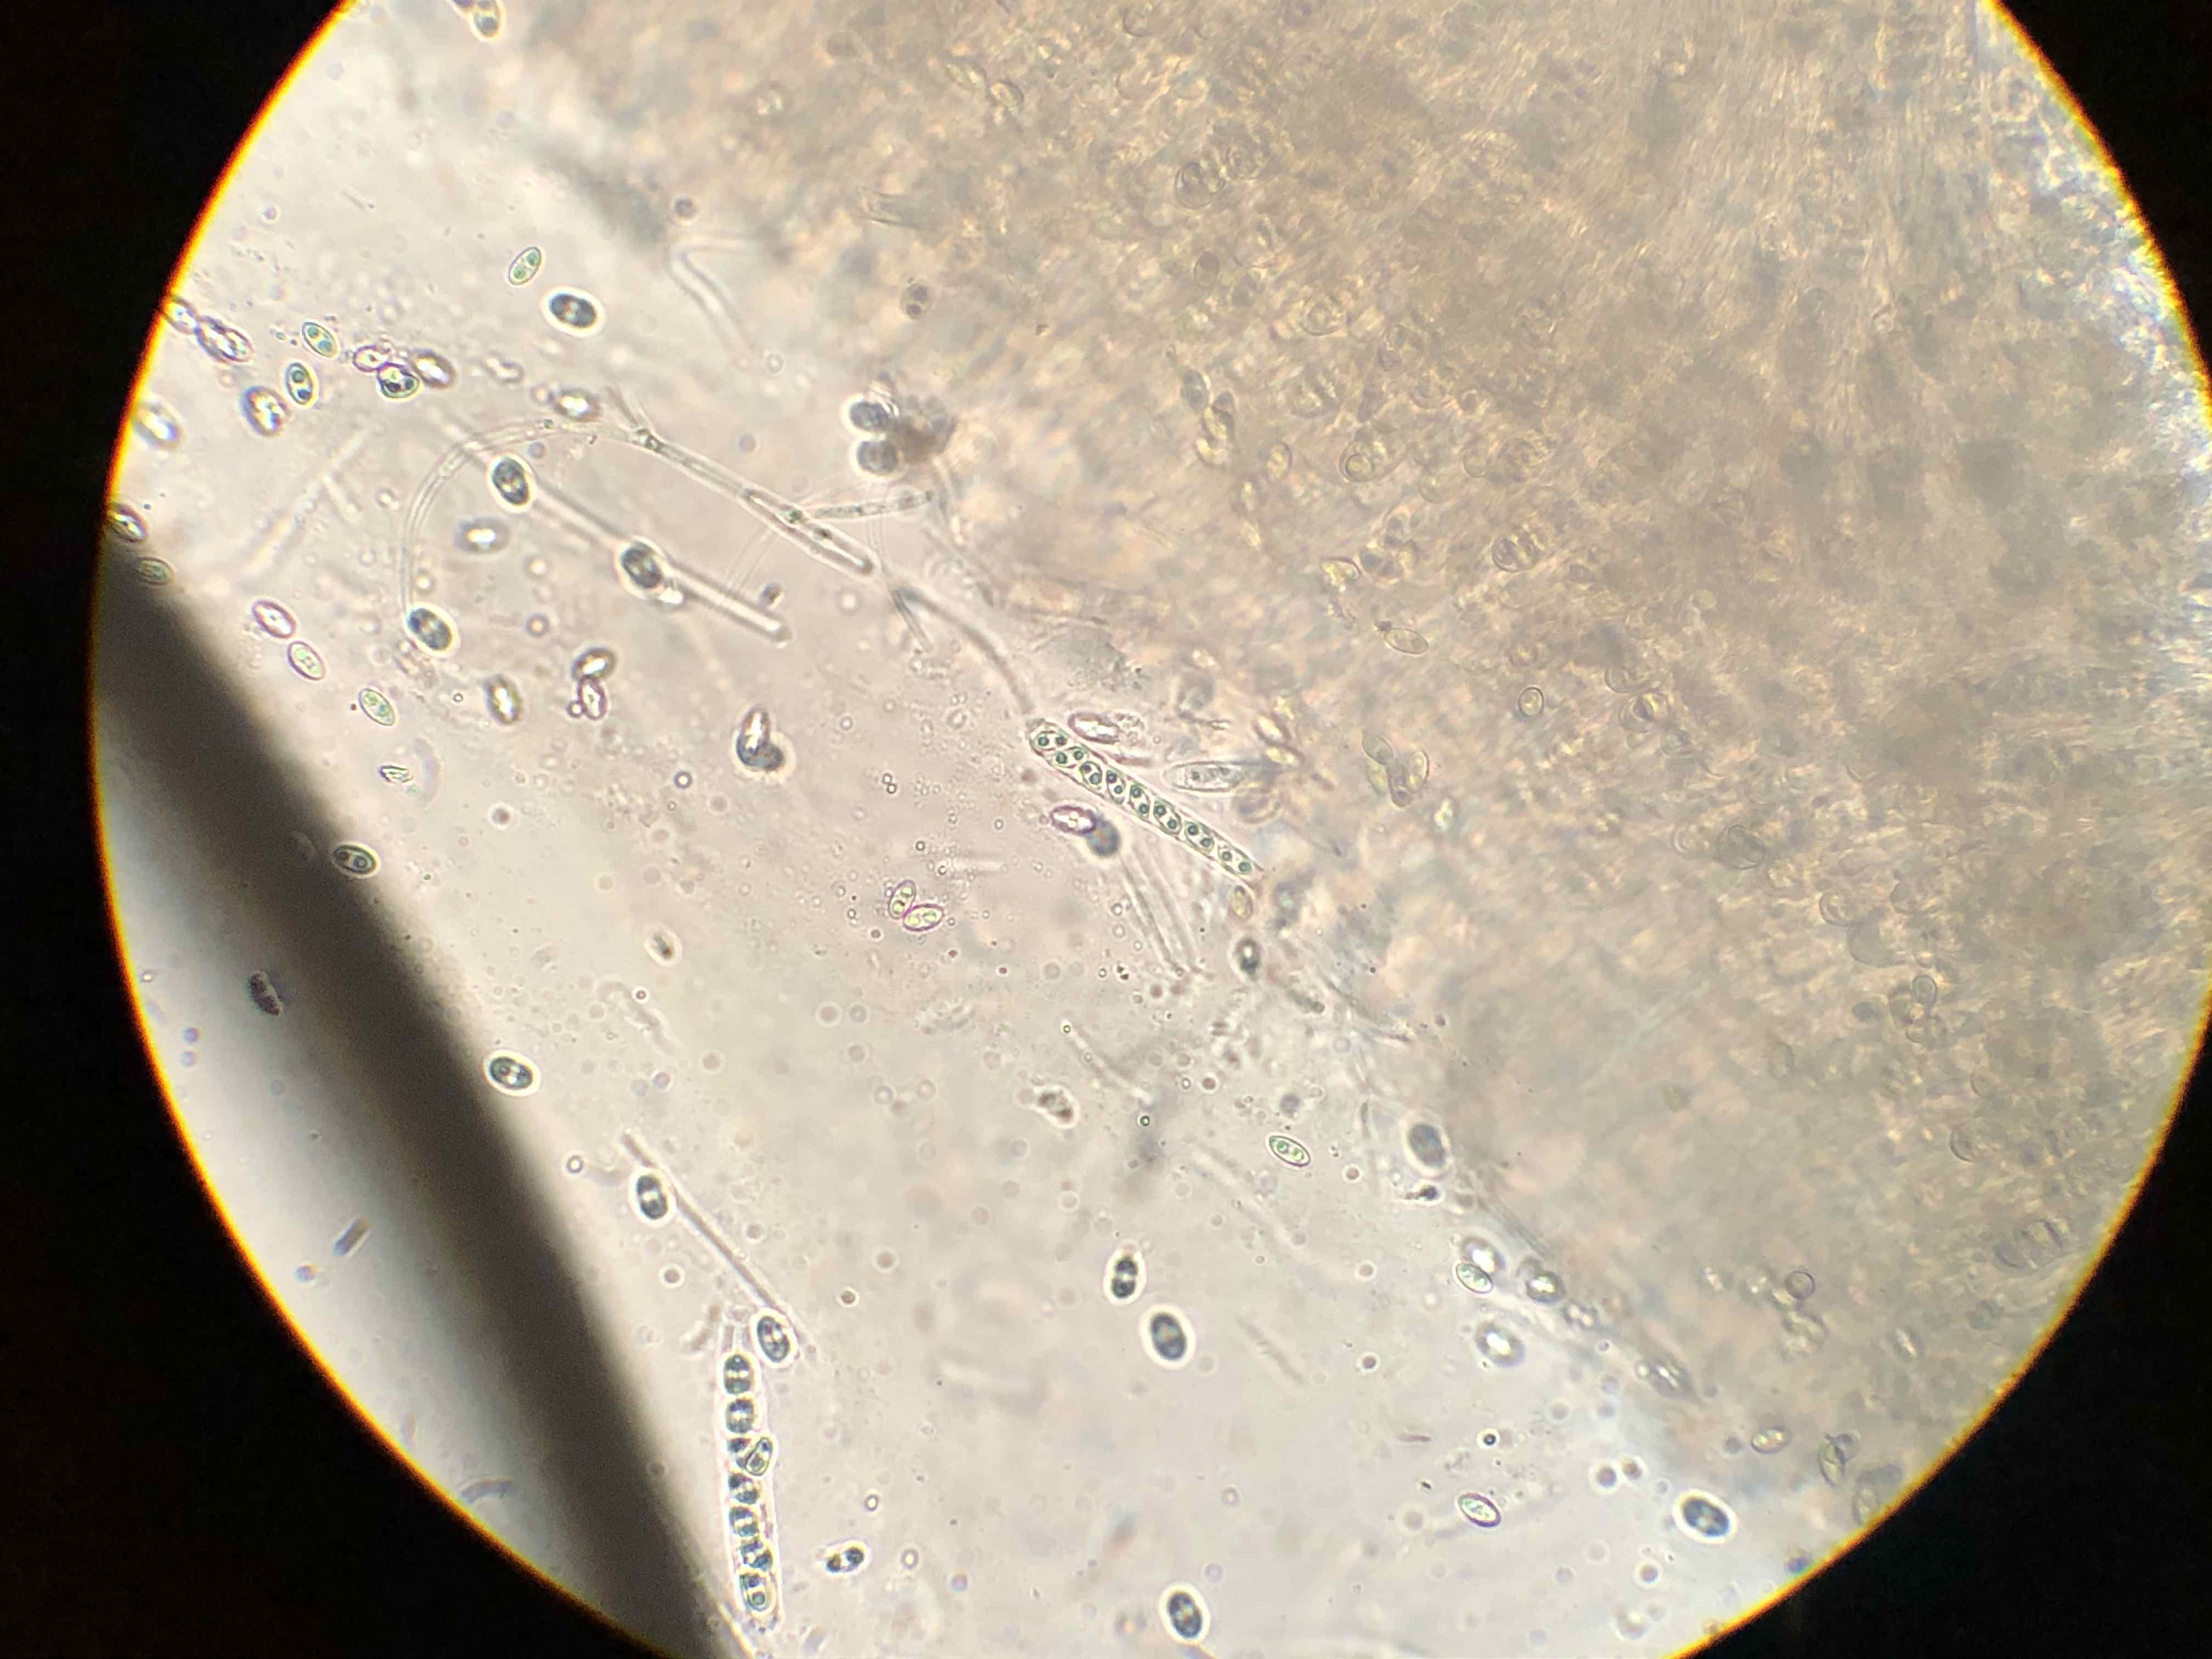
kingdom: Fungi
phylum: Ascomycota
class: Leotiomycetes
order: Helotiales
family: Gelatinodiscaceae
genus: Neobulgaria
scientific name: Neobulgaria pura
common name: bleg bævreskive
